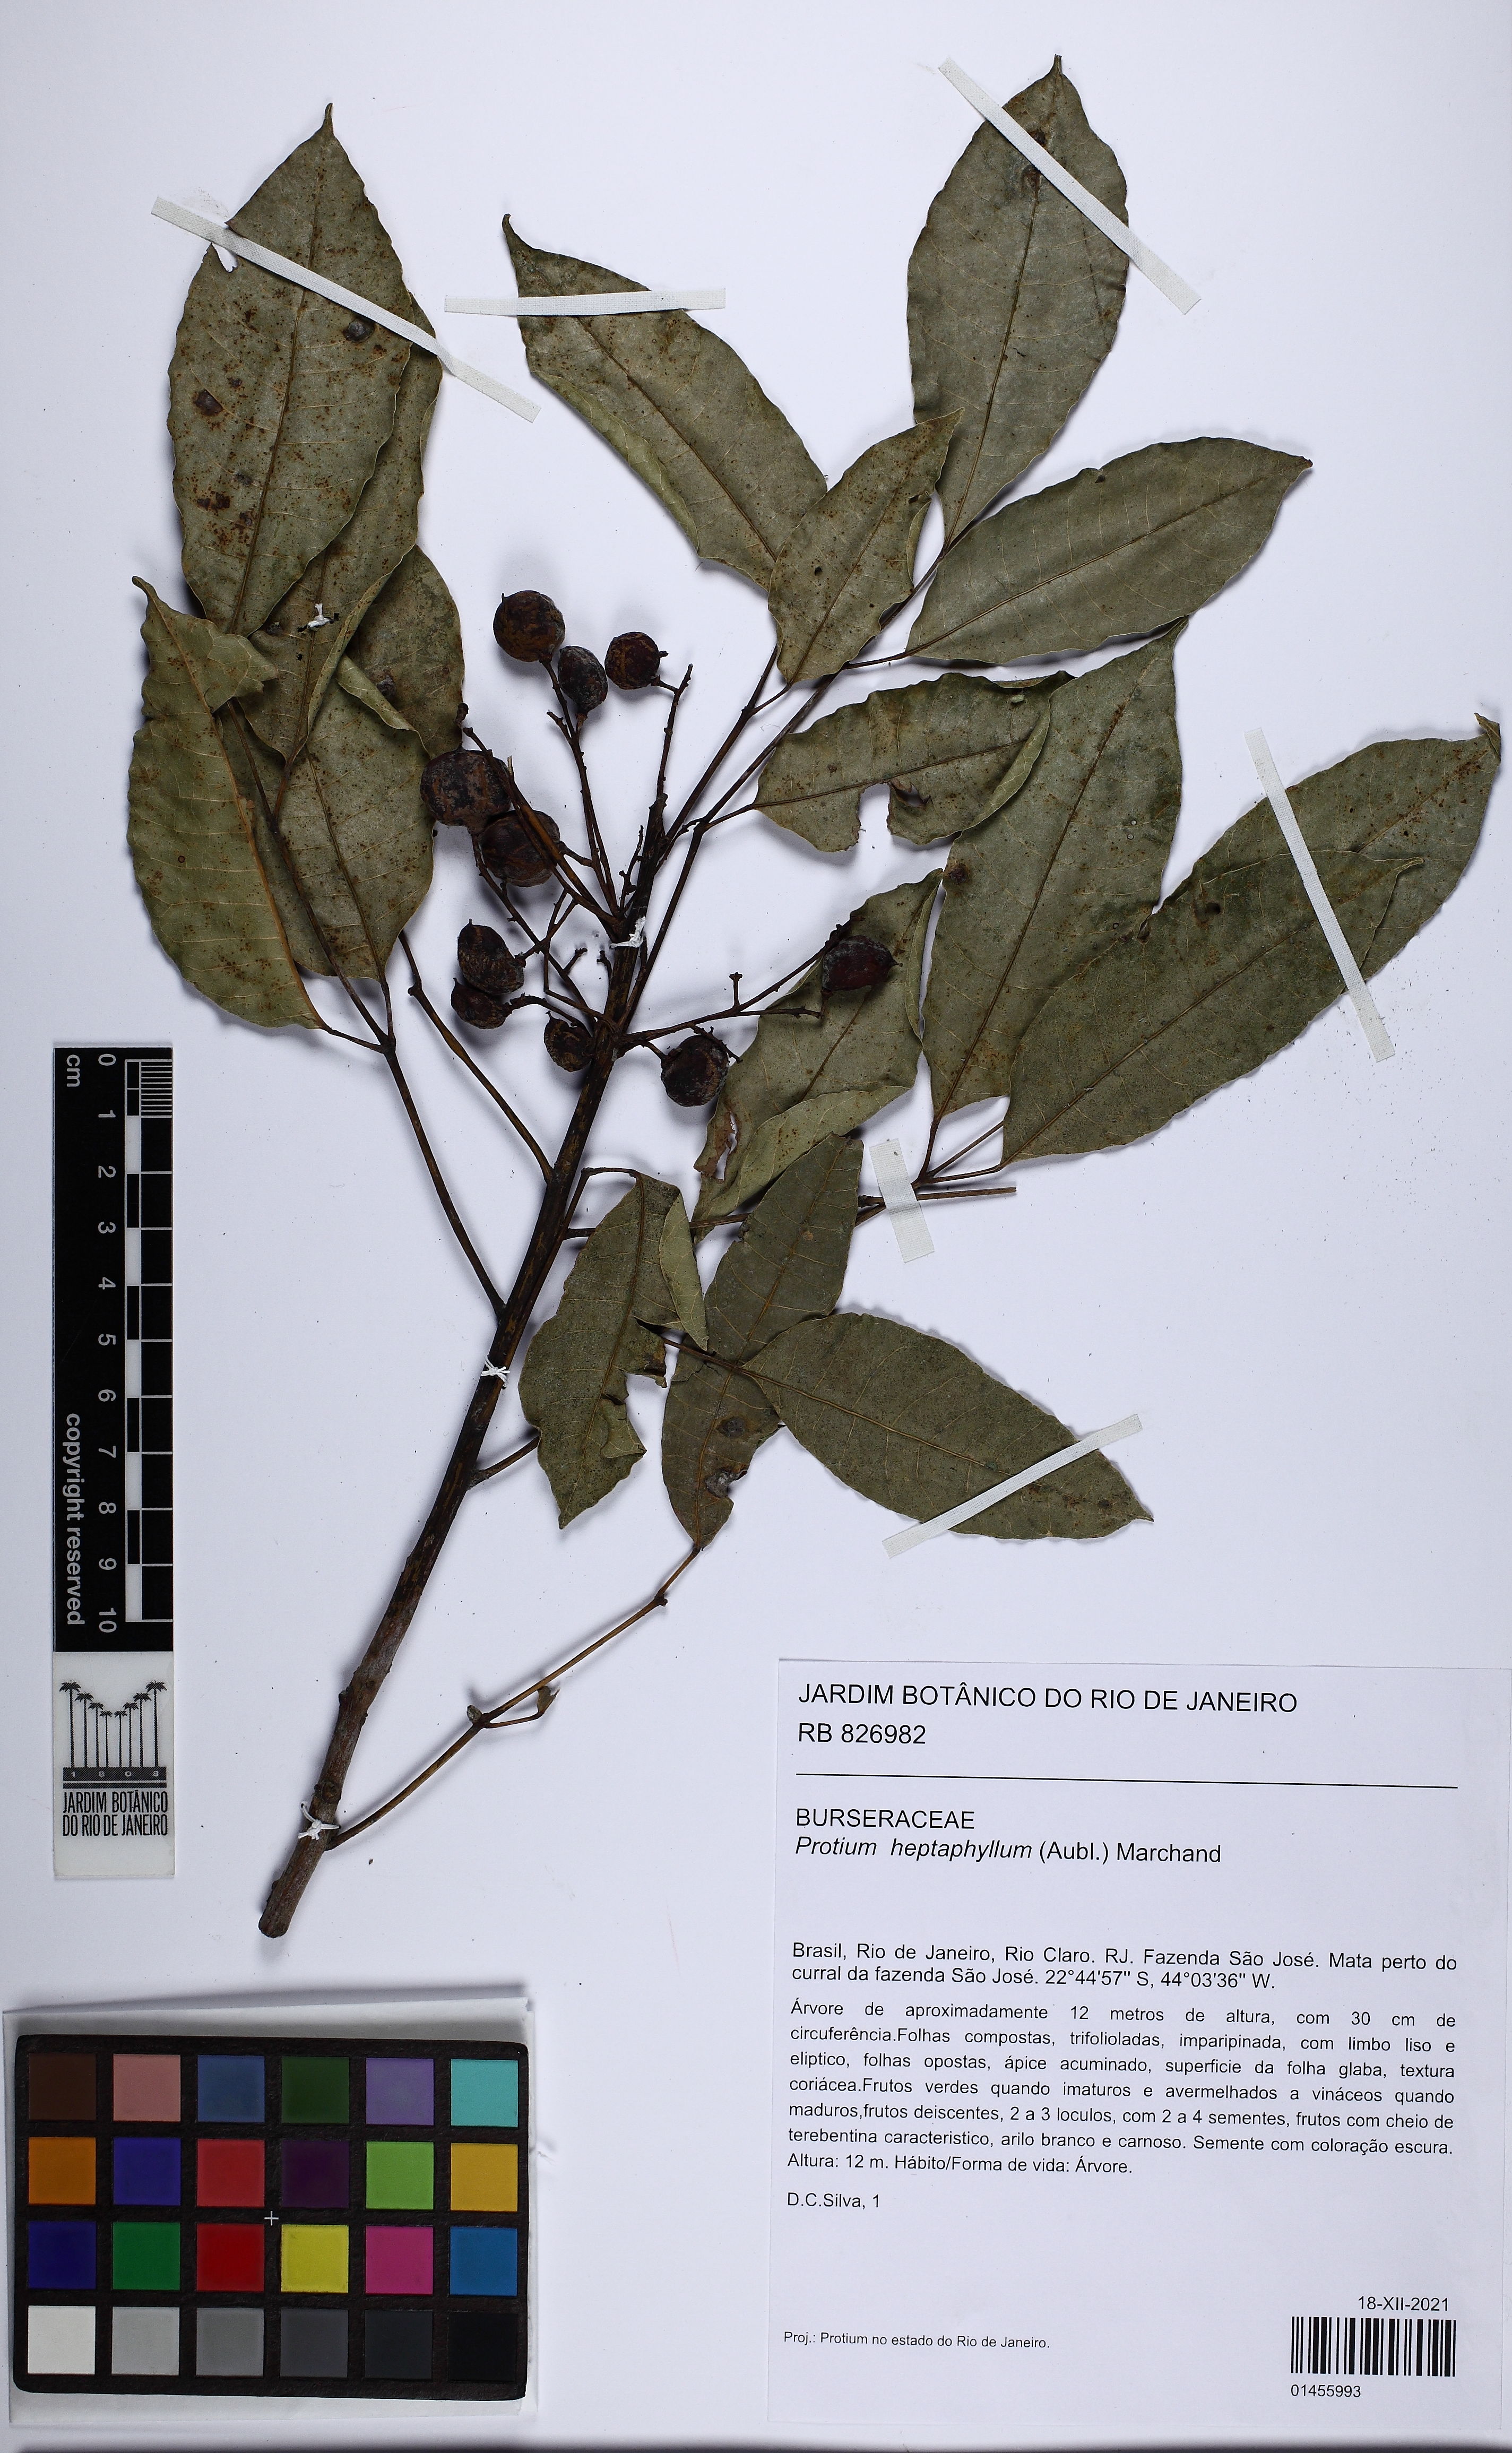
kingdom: Plantae
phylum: Tracheophyta
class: Magnoliopsida
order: Sapindales
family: Burseraceae
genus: Protium
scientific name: Protium heptaphyllum
